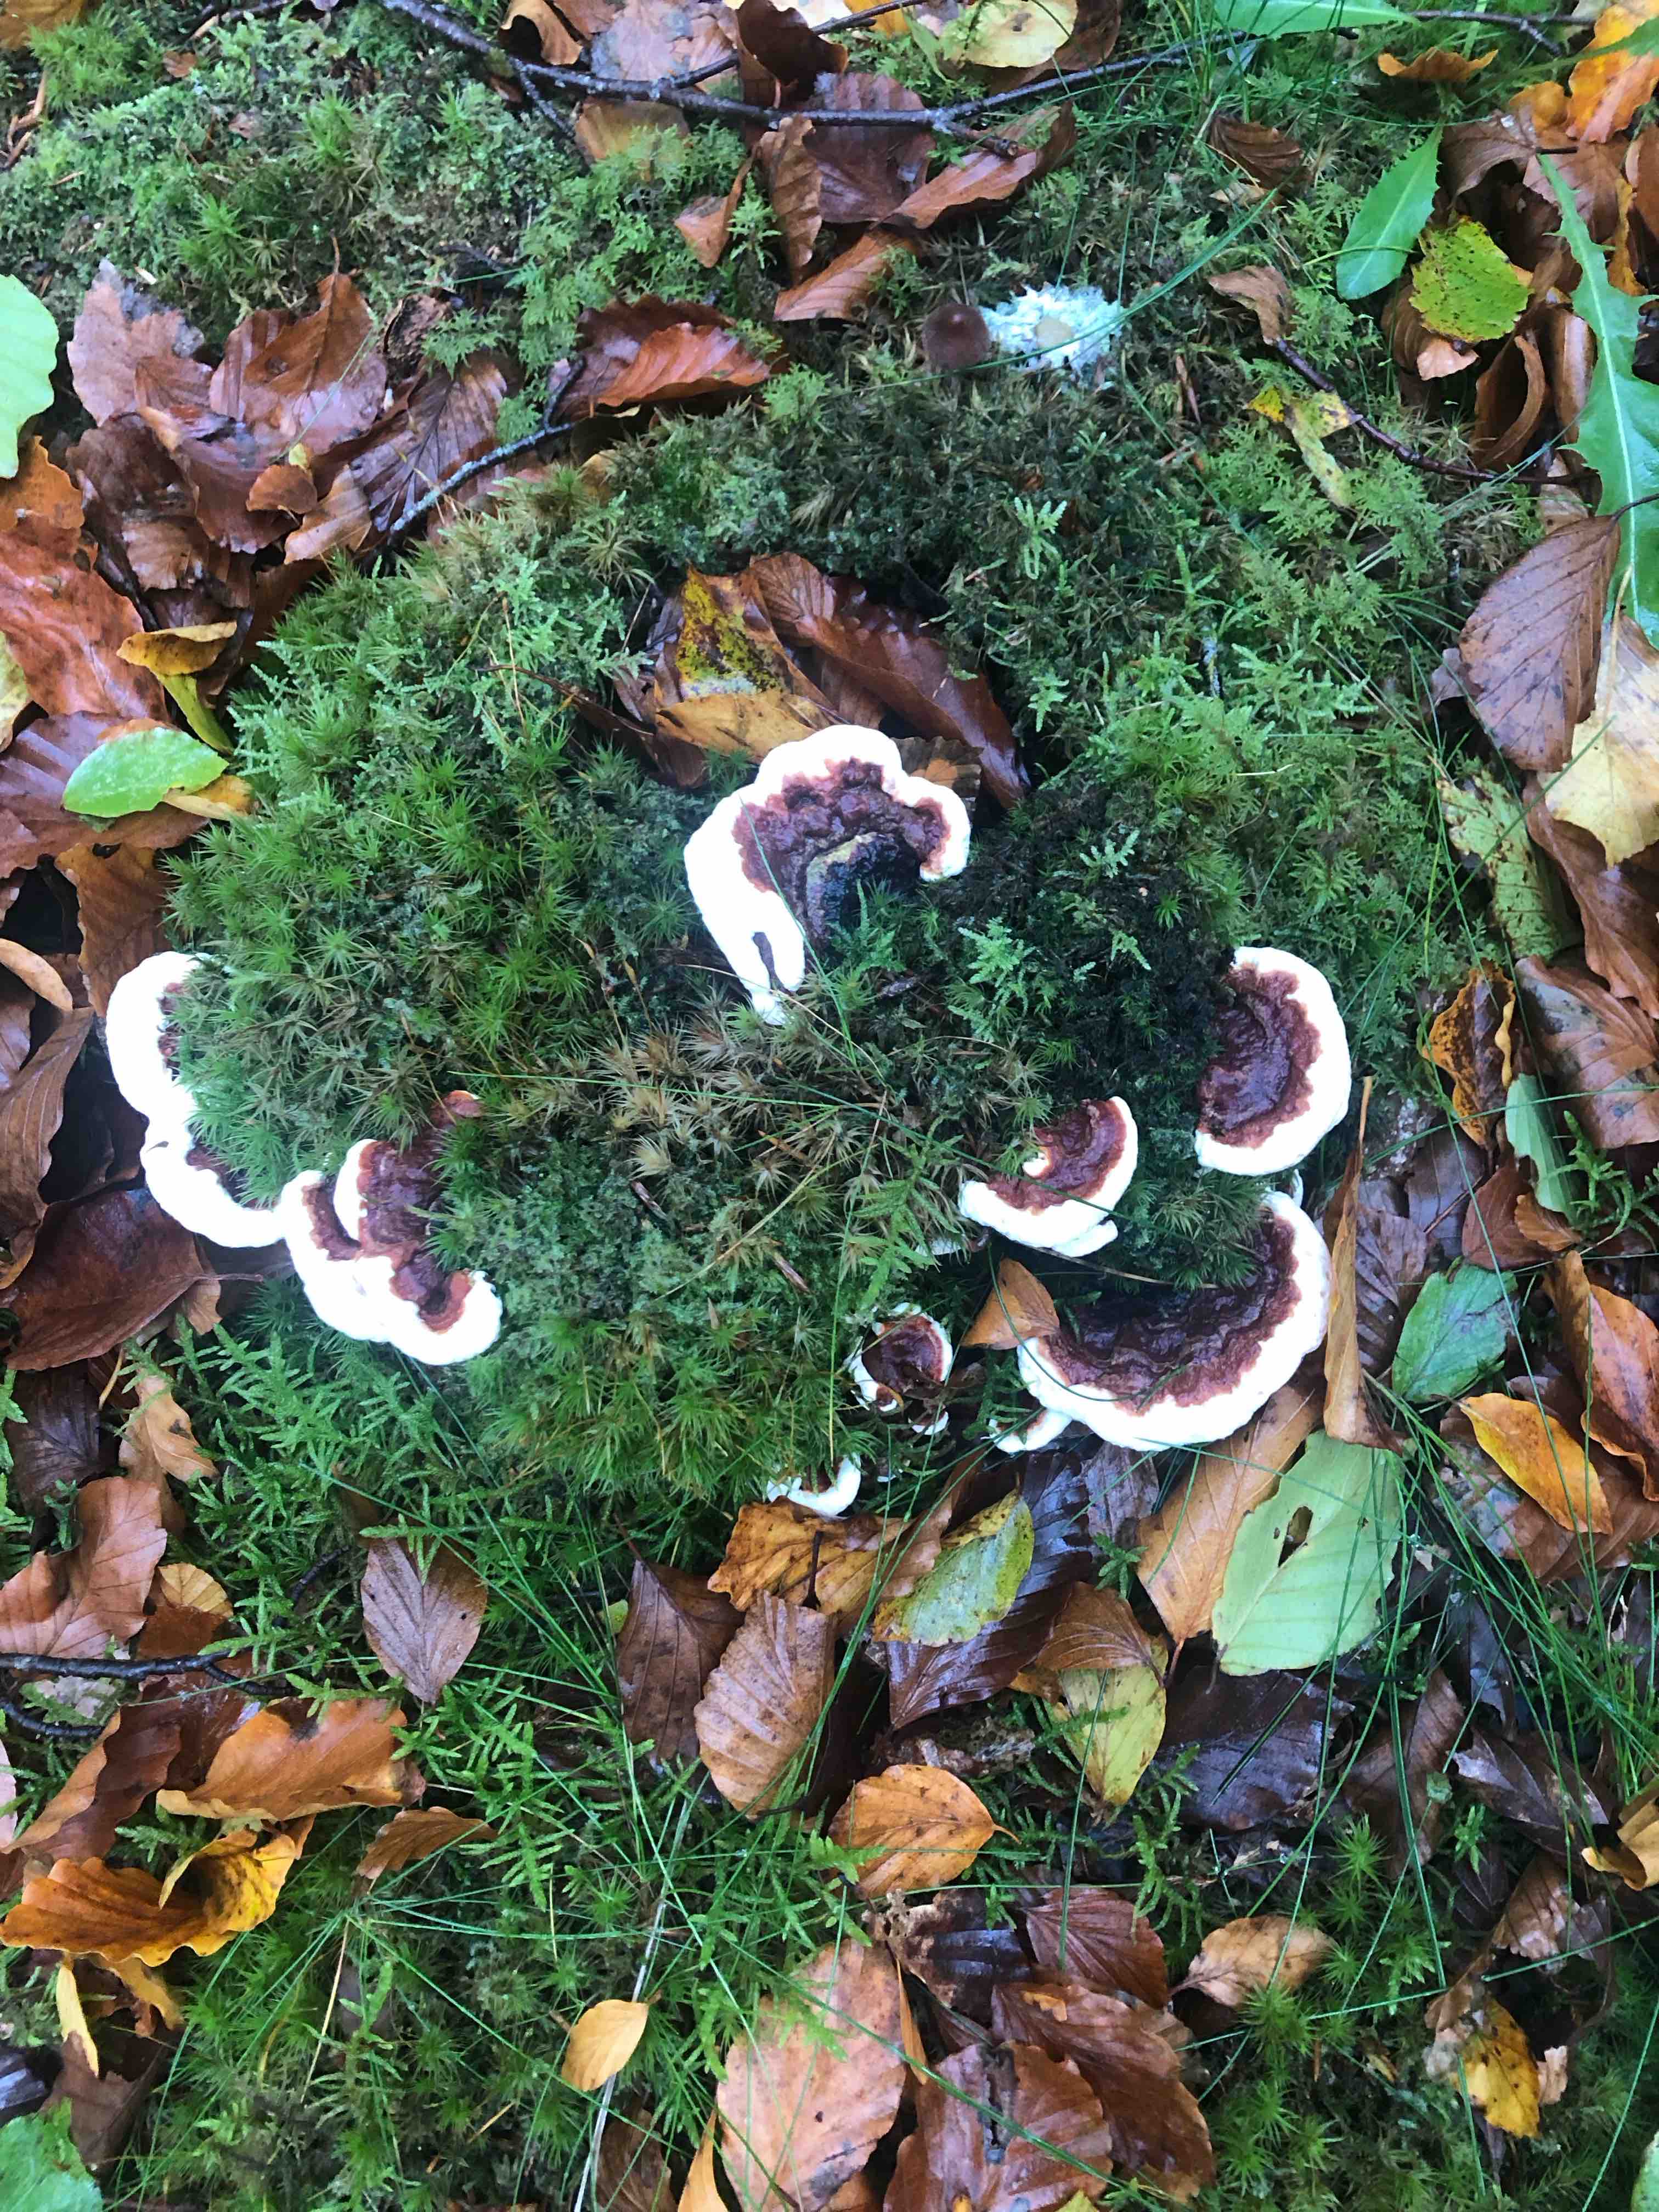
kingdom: Fungi
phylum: Basidiomycota
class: Agaricomycetes
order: Russulales
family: Bondarzewiaceae
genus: Heterobasidion
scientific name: Heterobasidion annosum
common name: almindelig rodfordærver
